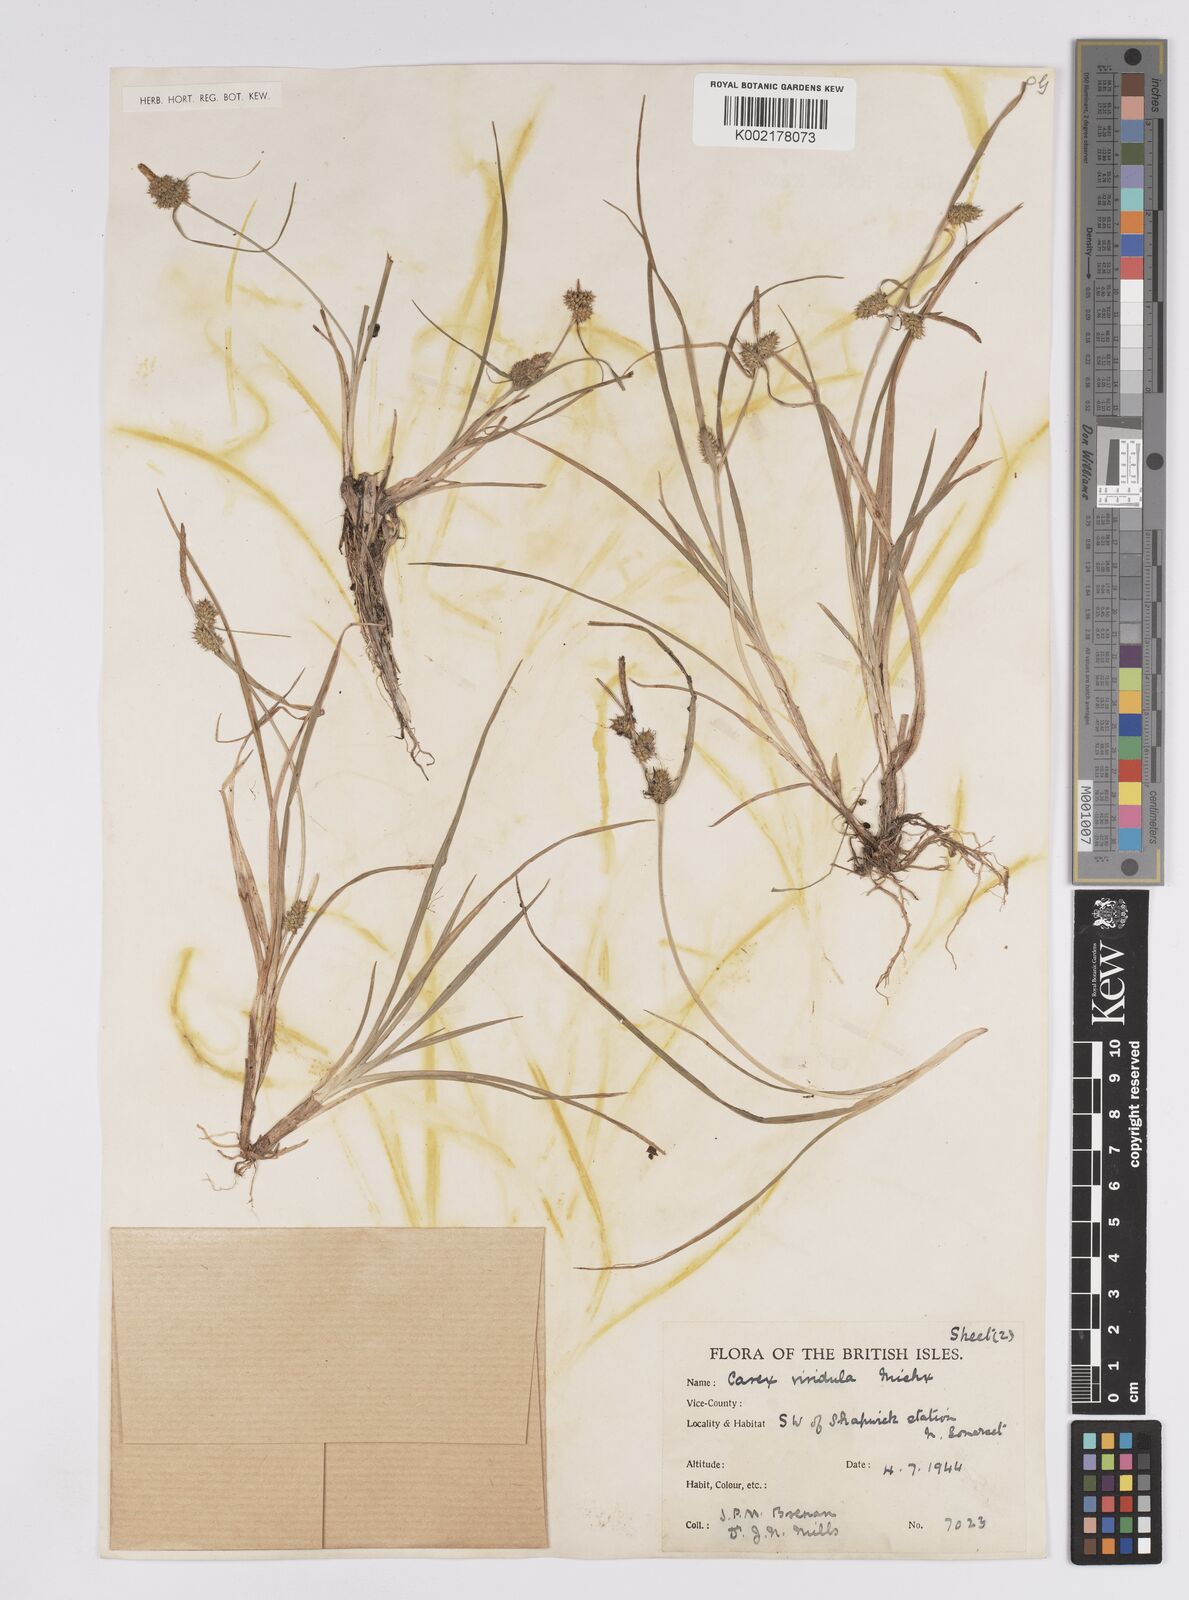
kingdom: Plantae
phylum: Tracheophyta
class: Liliopsida
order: Poales
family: Cyperaceae
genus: Carex
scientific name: Carex demissa
